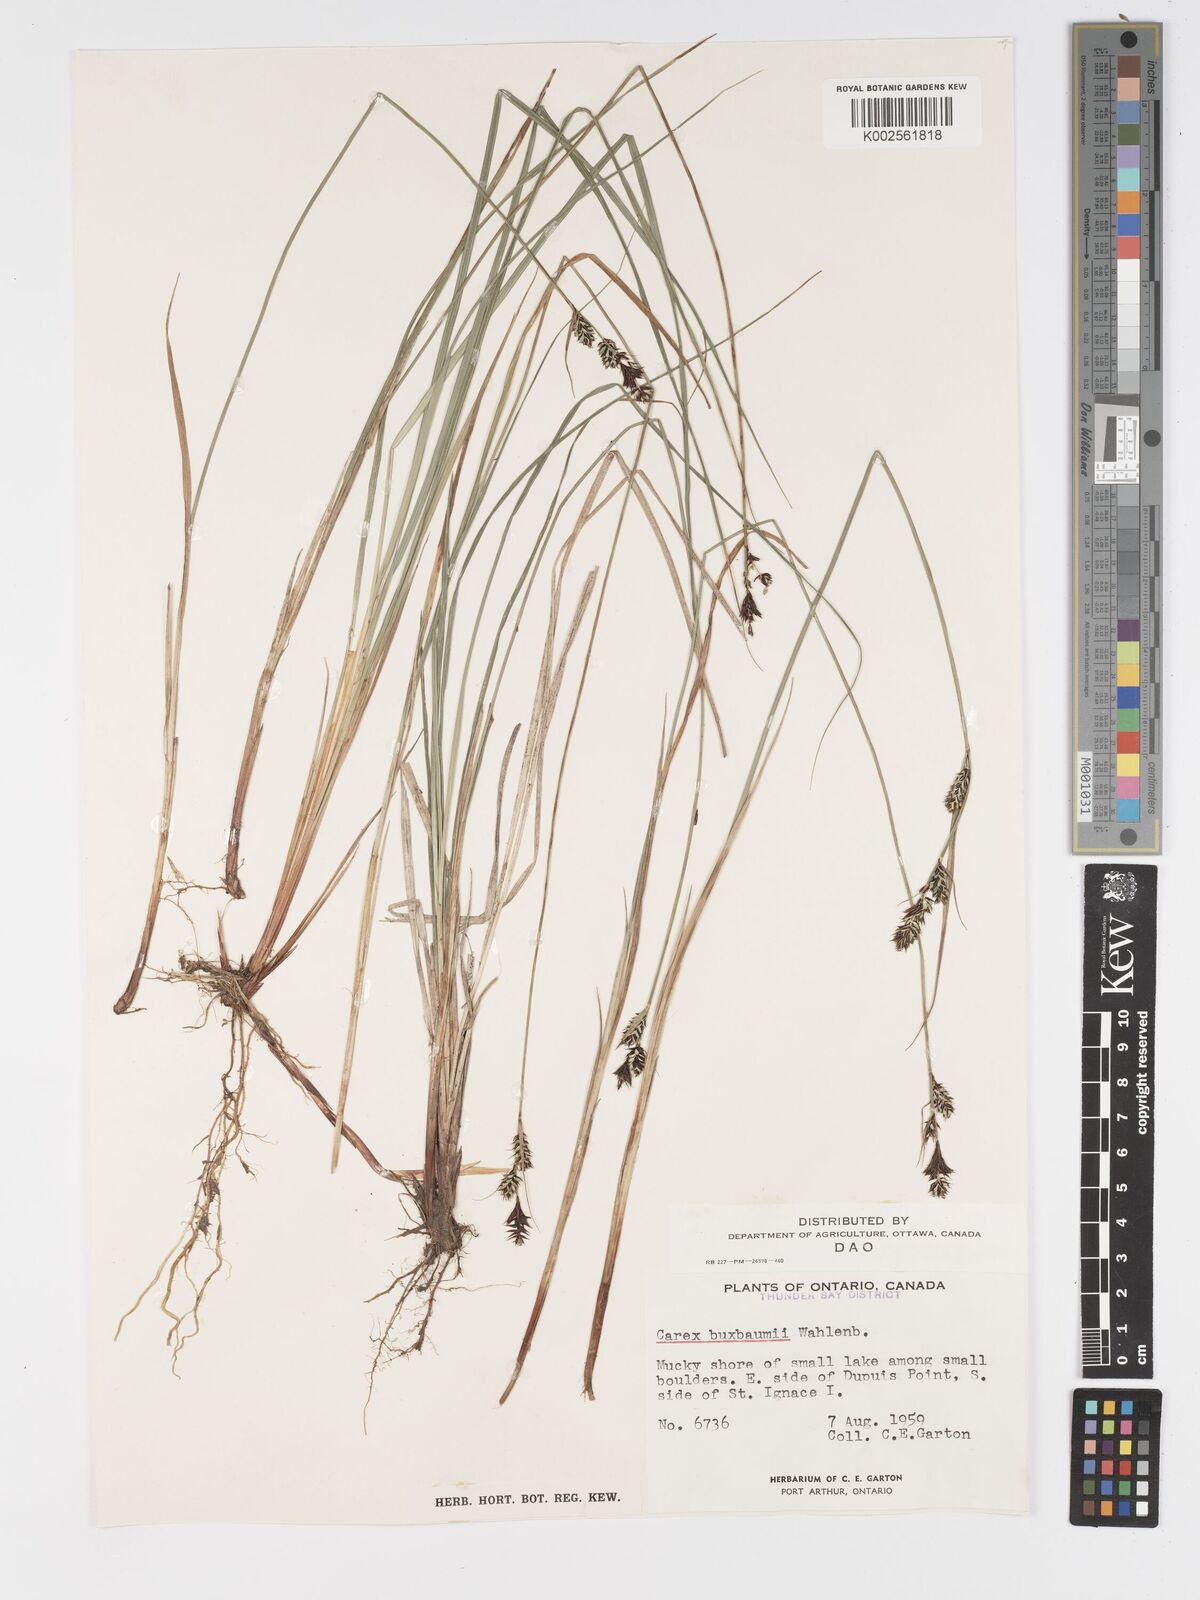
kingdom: Plantae
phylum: Tracheophyta
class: Liliopsida
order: Poales
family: Cyperaceae
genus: Carex
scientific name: Carex buxbaumii
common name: Club sedge
